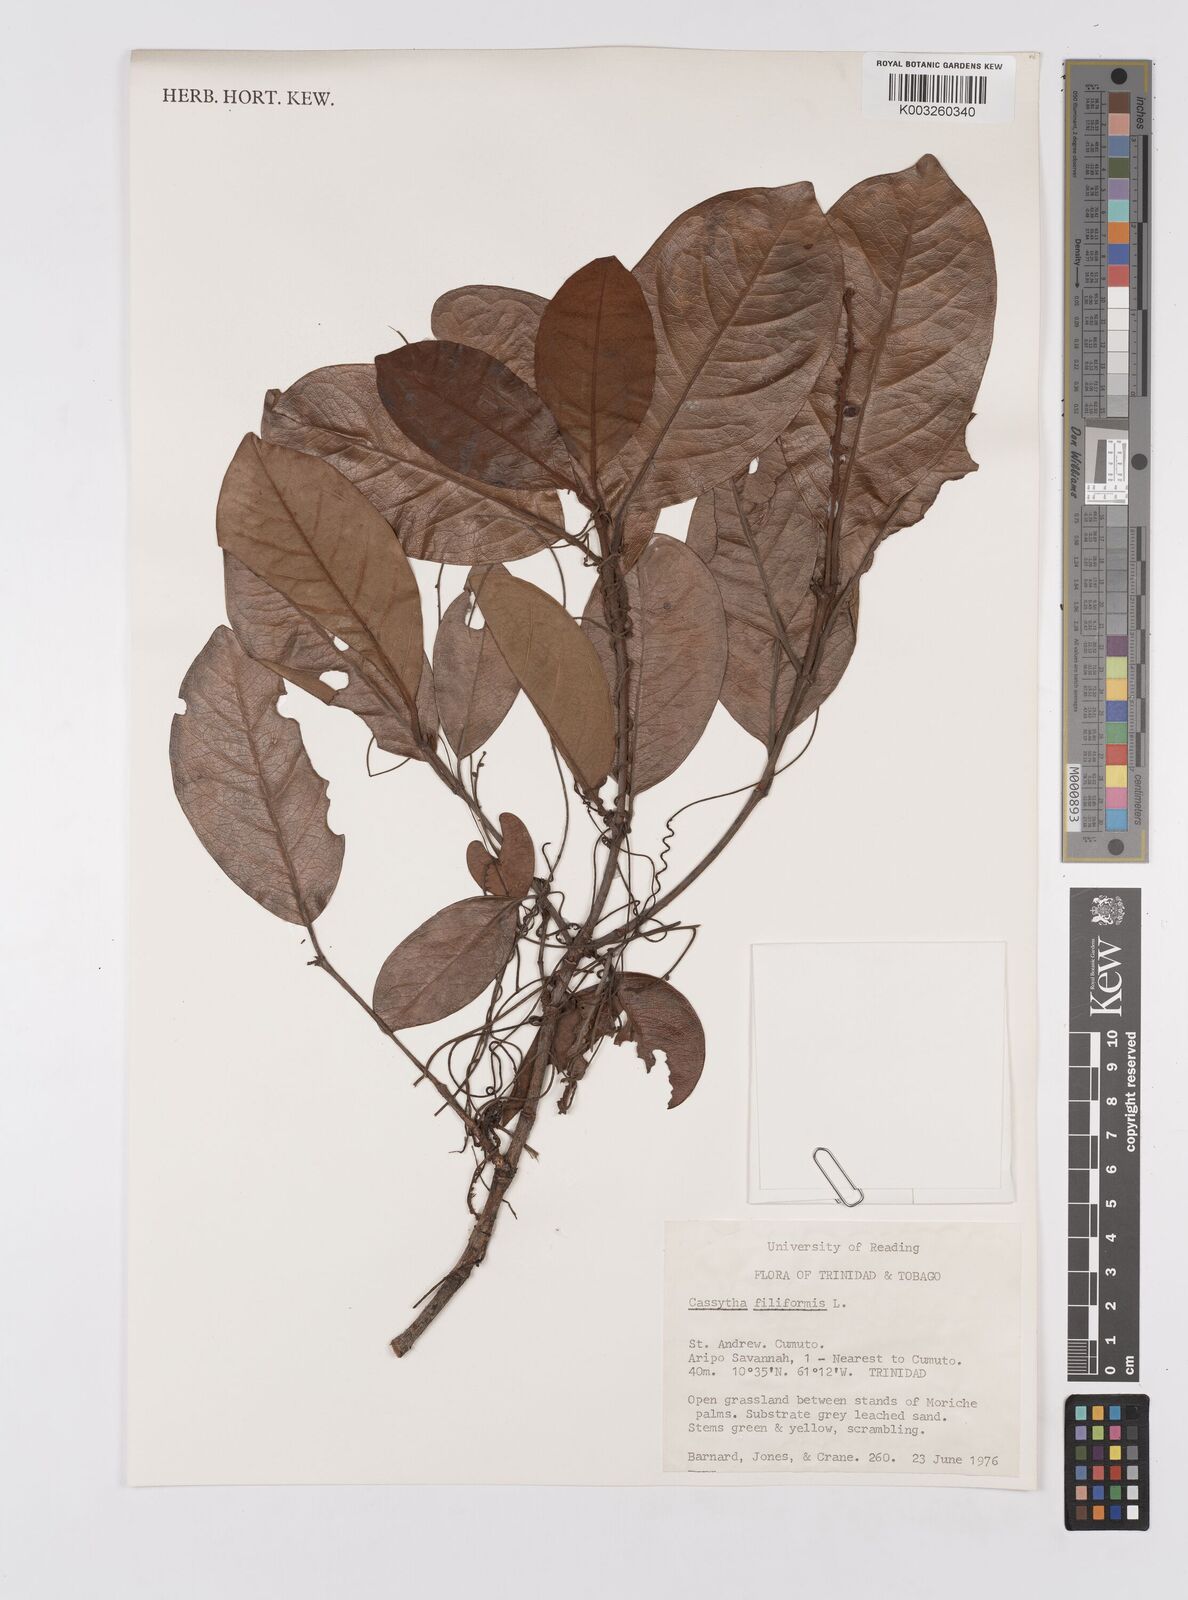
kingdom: Plantae
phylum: Tracheophyta
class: Magnoliopsida
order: Laurales
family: Lauraceae
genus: Cassytha
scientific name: Cassytha filiformis
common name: Dodder-laurel
